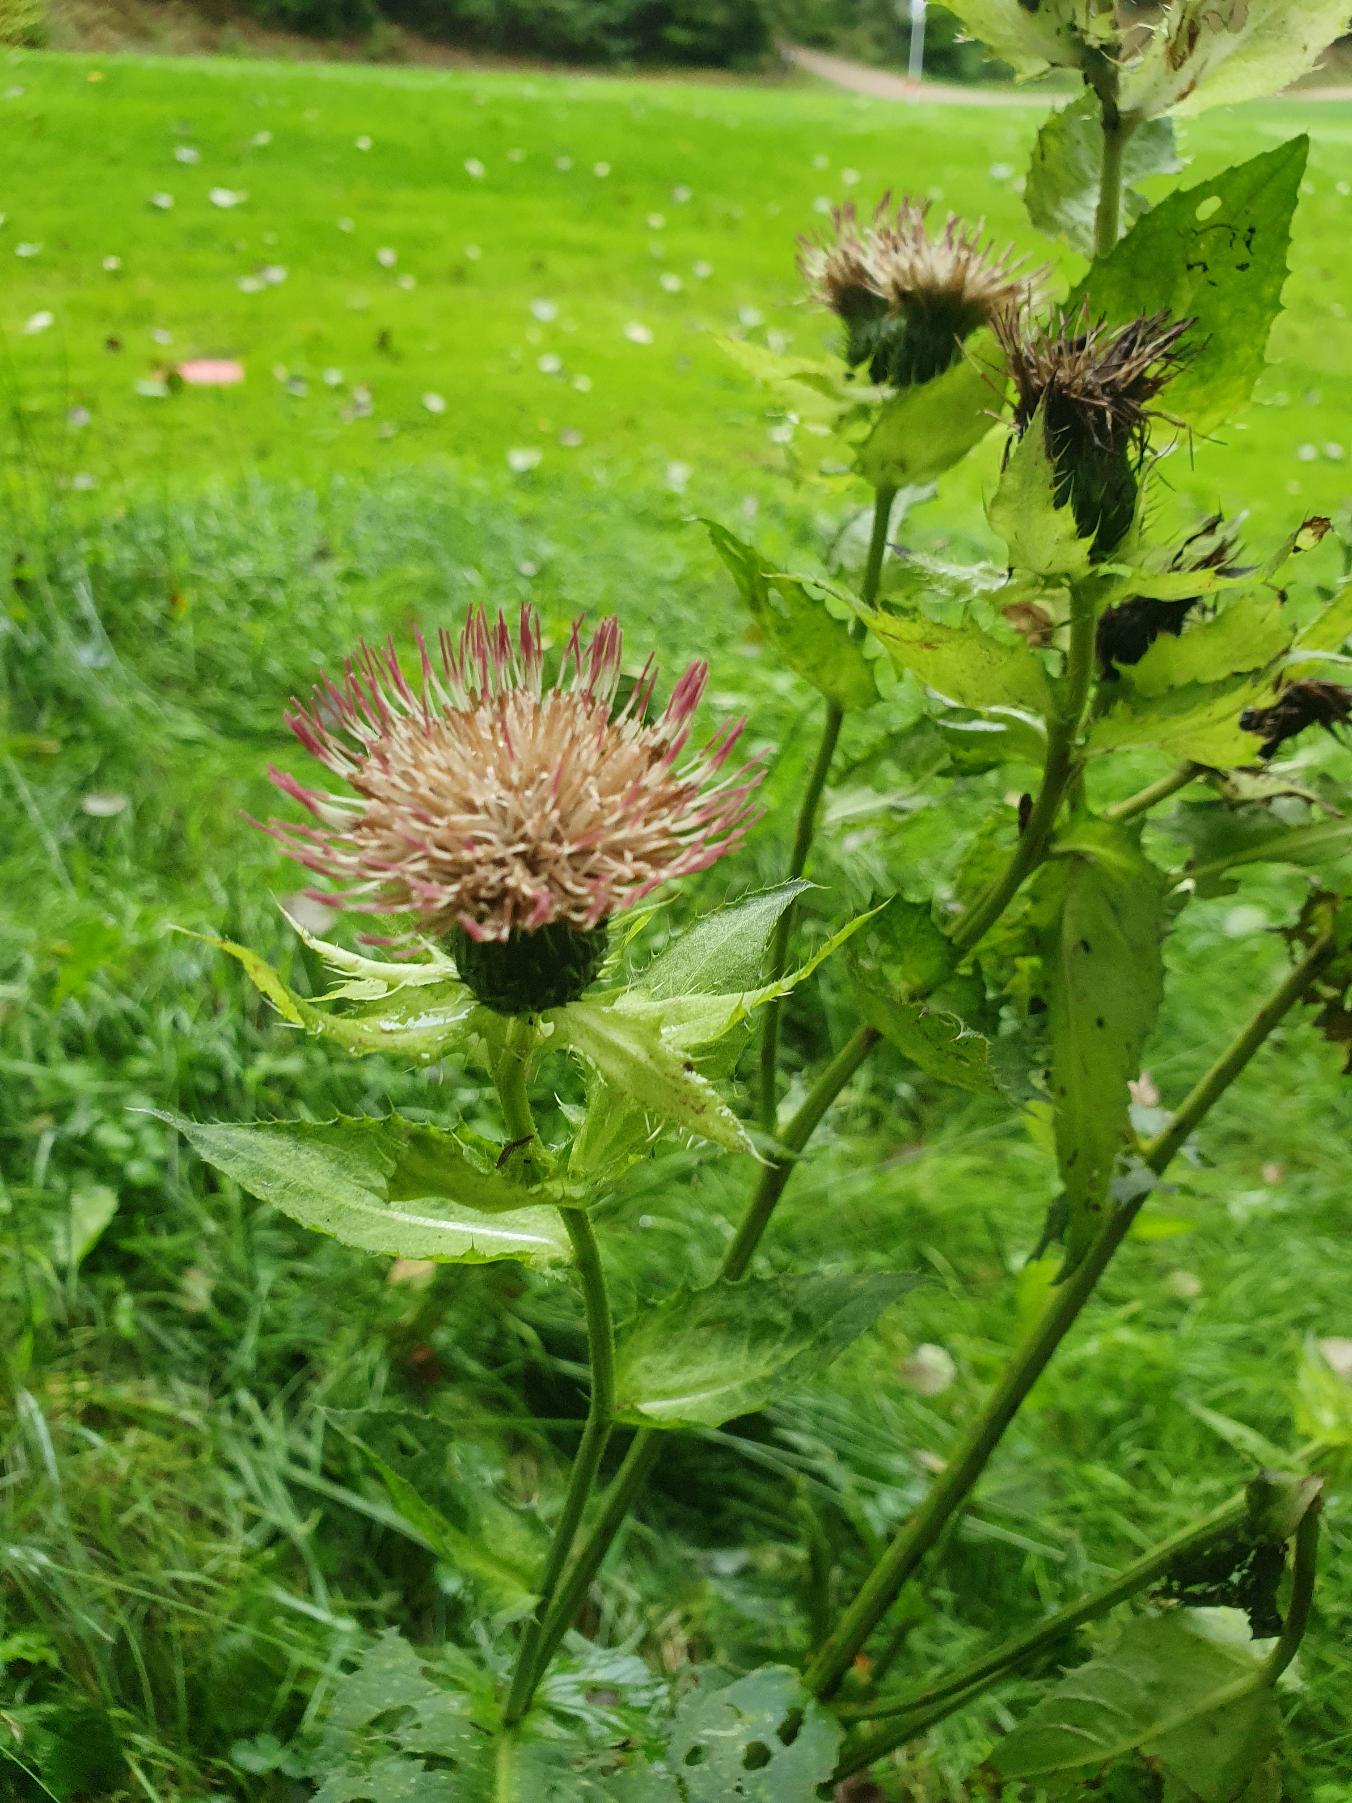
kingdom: Plantae
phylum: Tracheophyta
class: Magnoliopsida
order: Asterales
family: Asteraceae
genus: Cirsium
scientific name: Cirsium oleraceum
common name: Kål-tidsel
